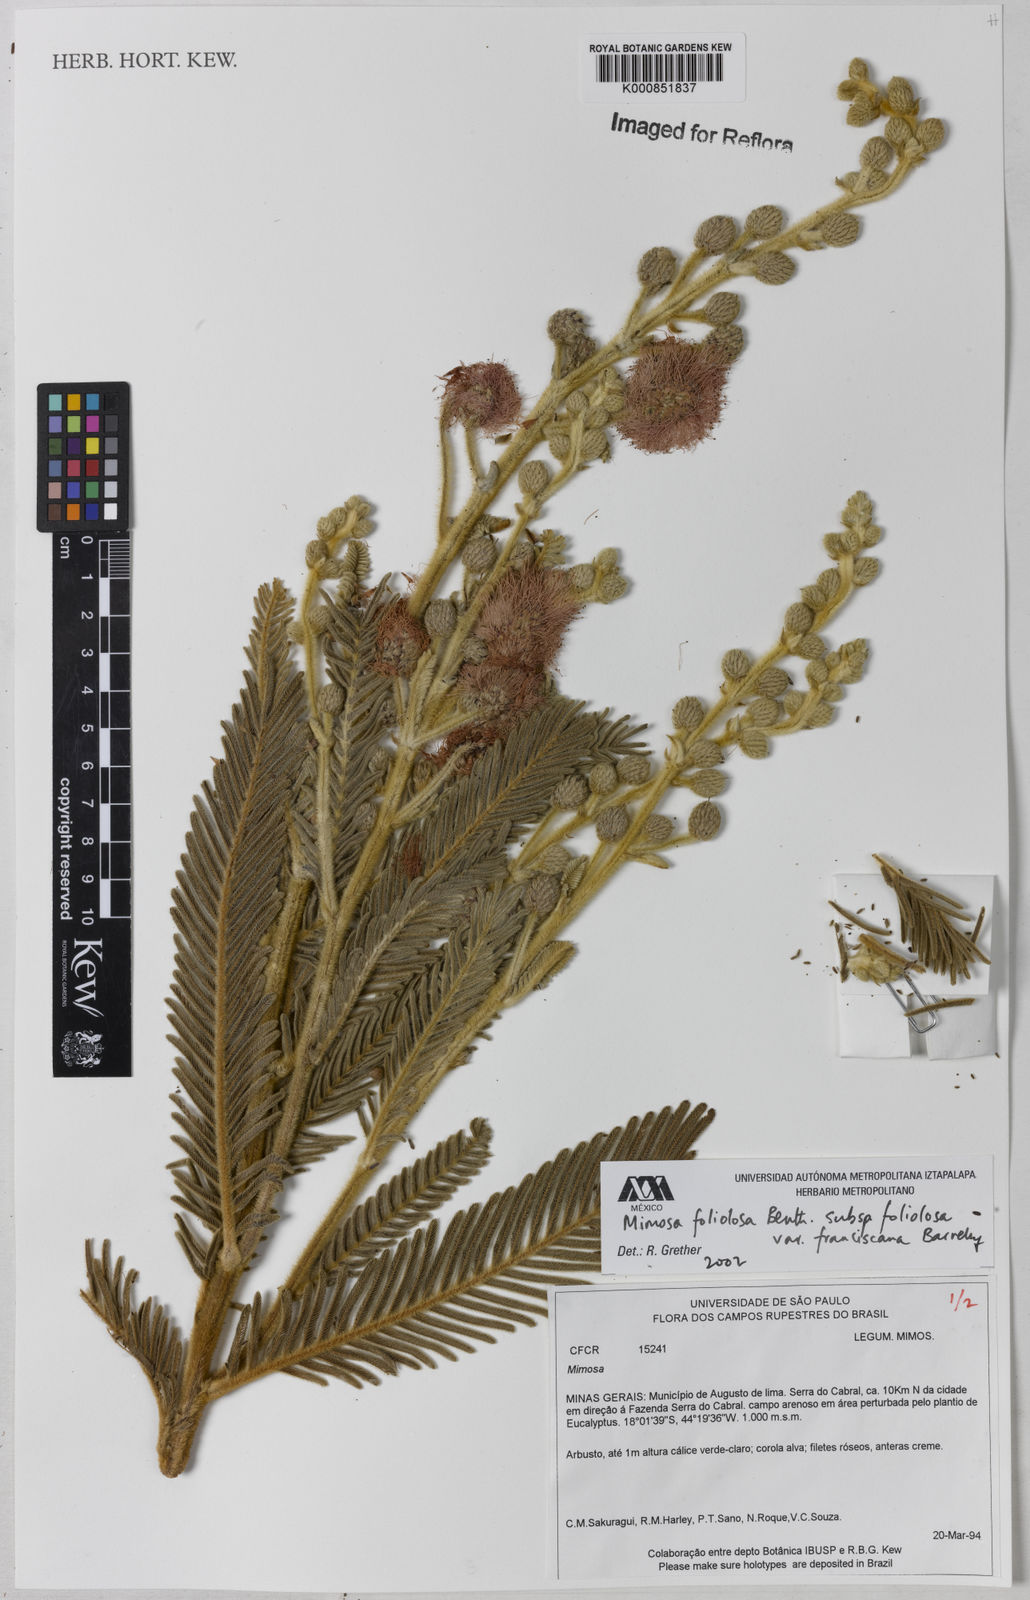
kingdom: Plantae
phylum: Tracheophyta
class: Magnoliopsida
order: Fabales
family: Fabaceae
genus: Mimosa
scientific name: Mimosa foliolosa
